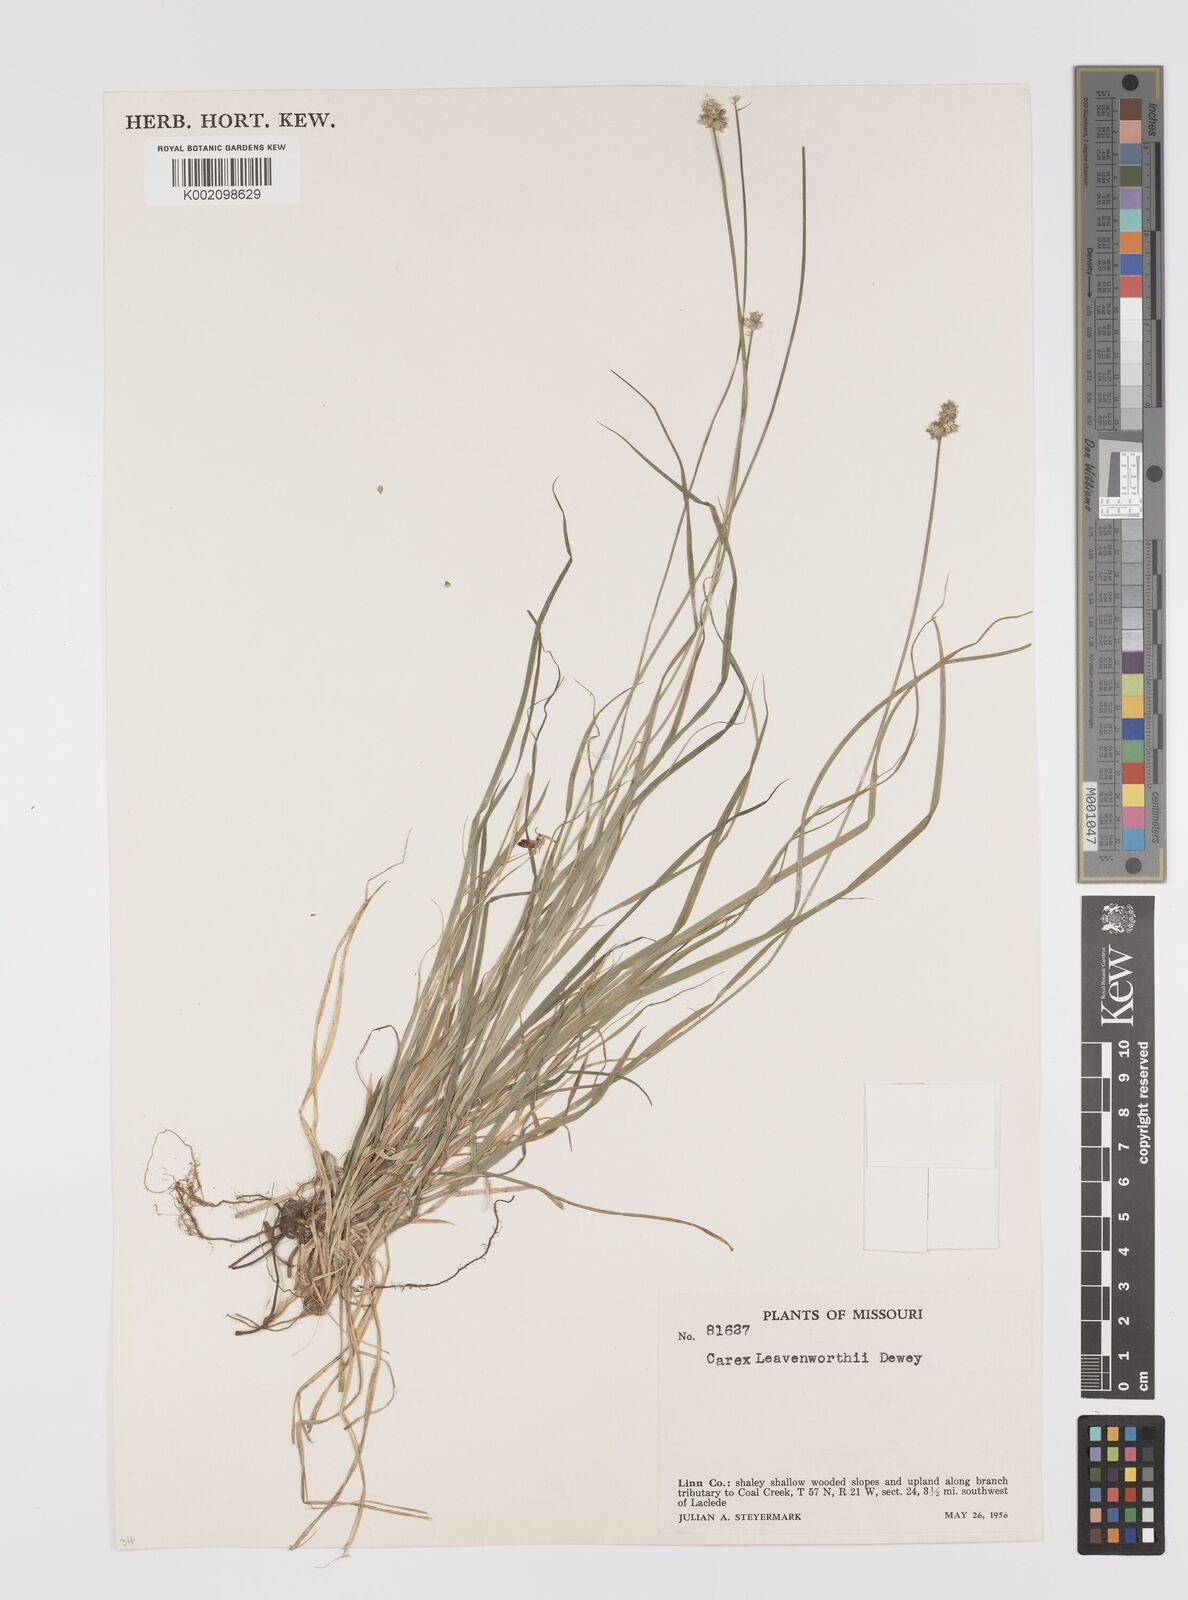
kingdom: Plantae
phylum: Tracheophyta
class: Liliopsida
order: Poales
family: Cyperaceae
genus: Carex
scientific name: Carex leavenworthii
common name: Leavenworth's bracted sedge
